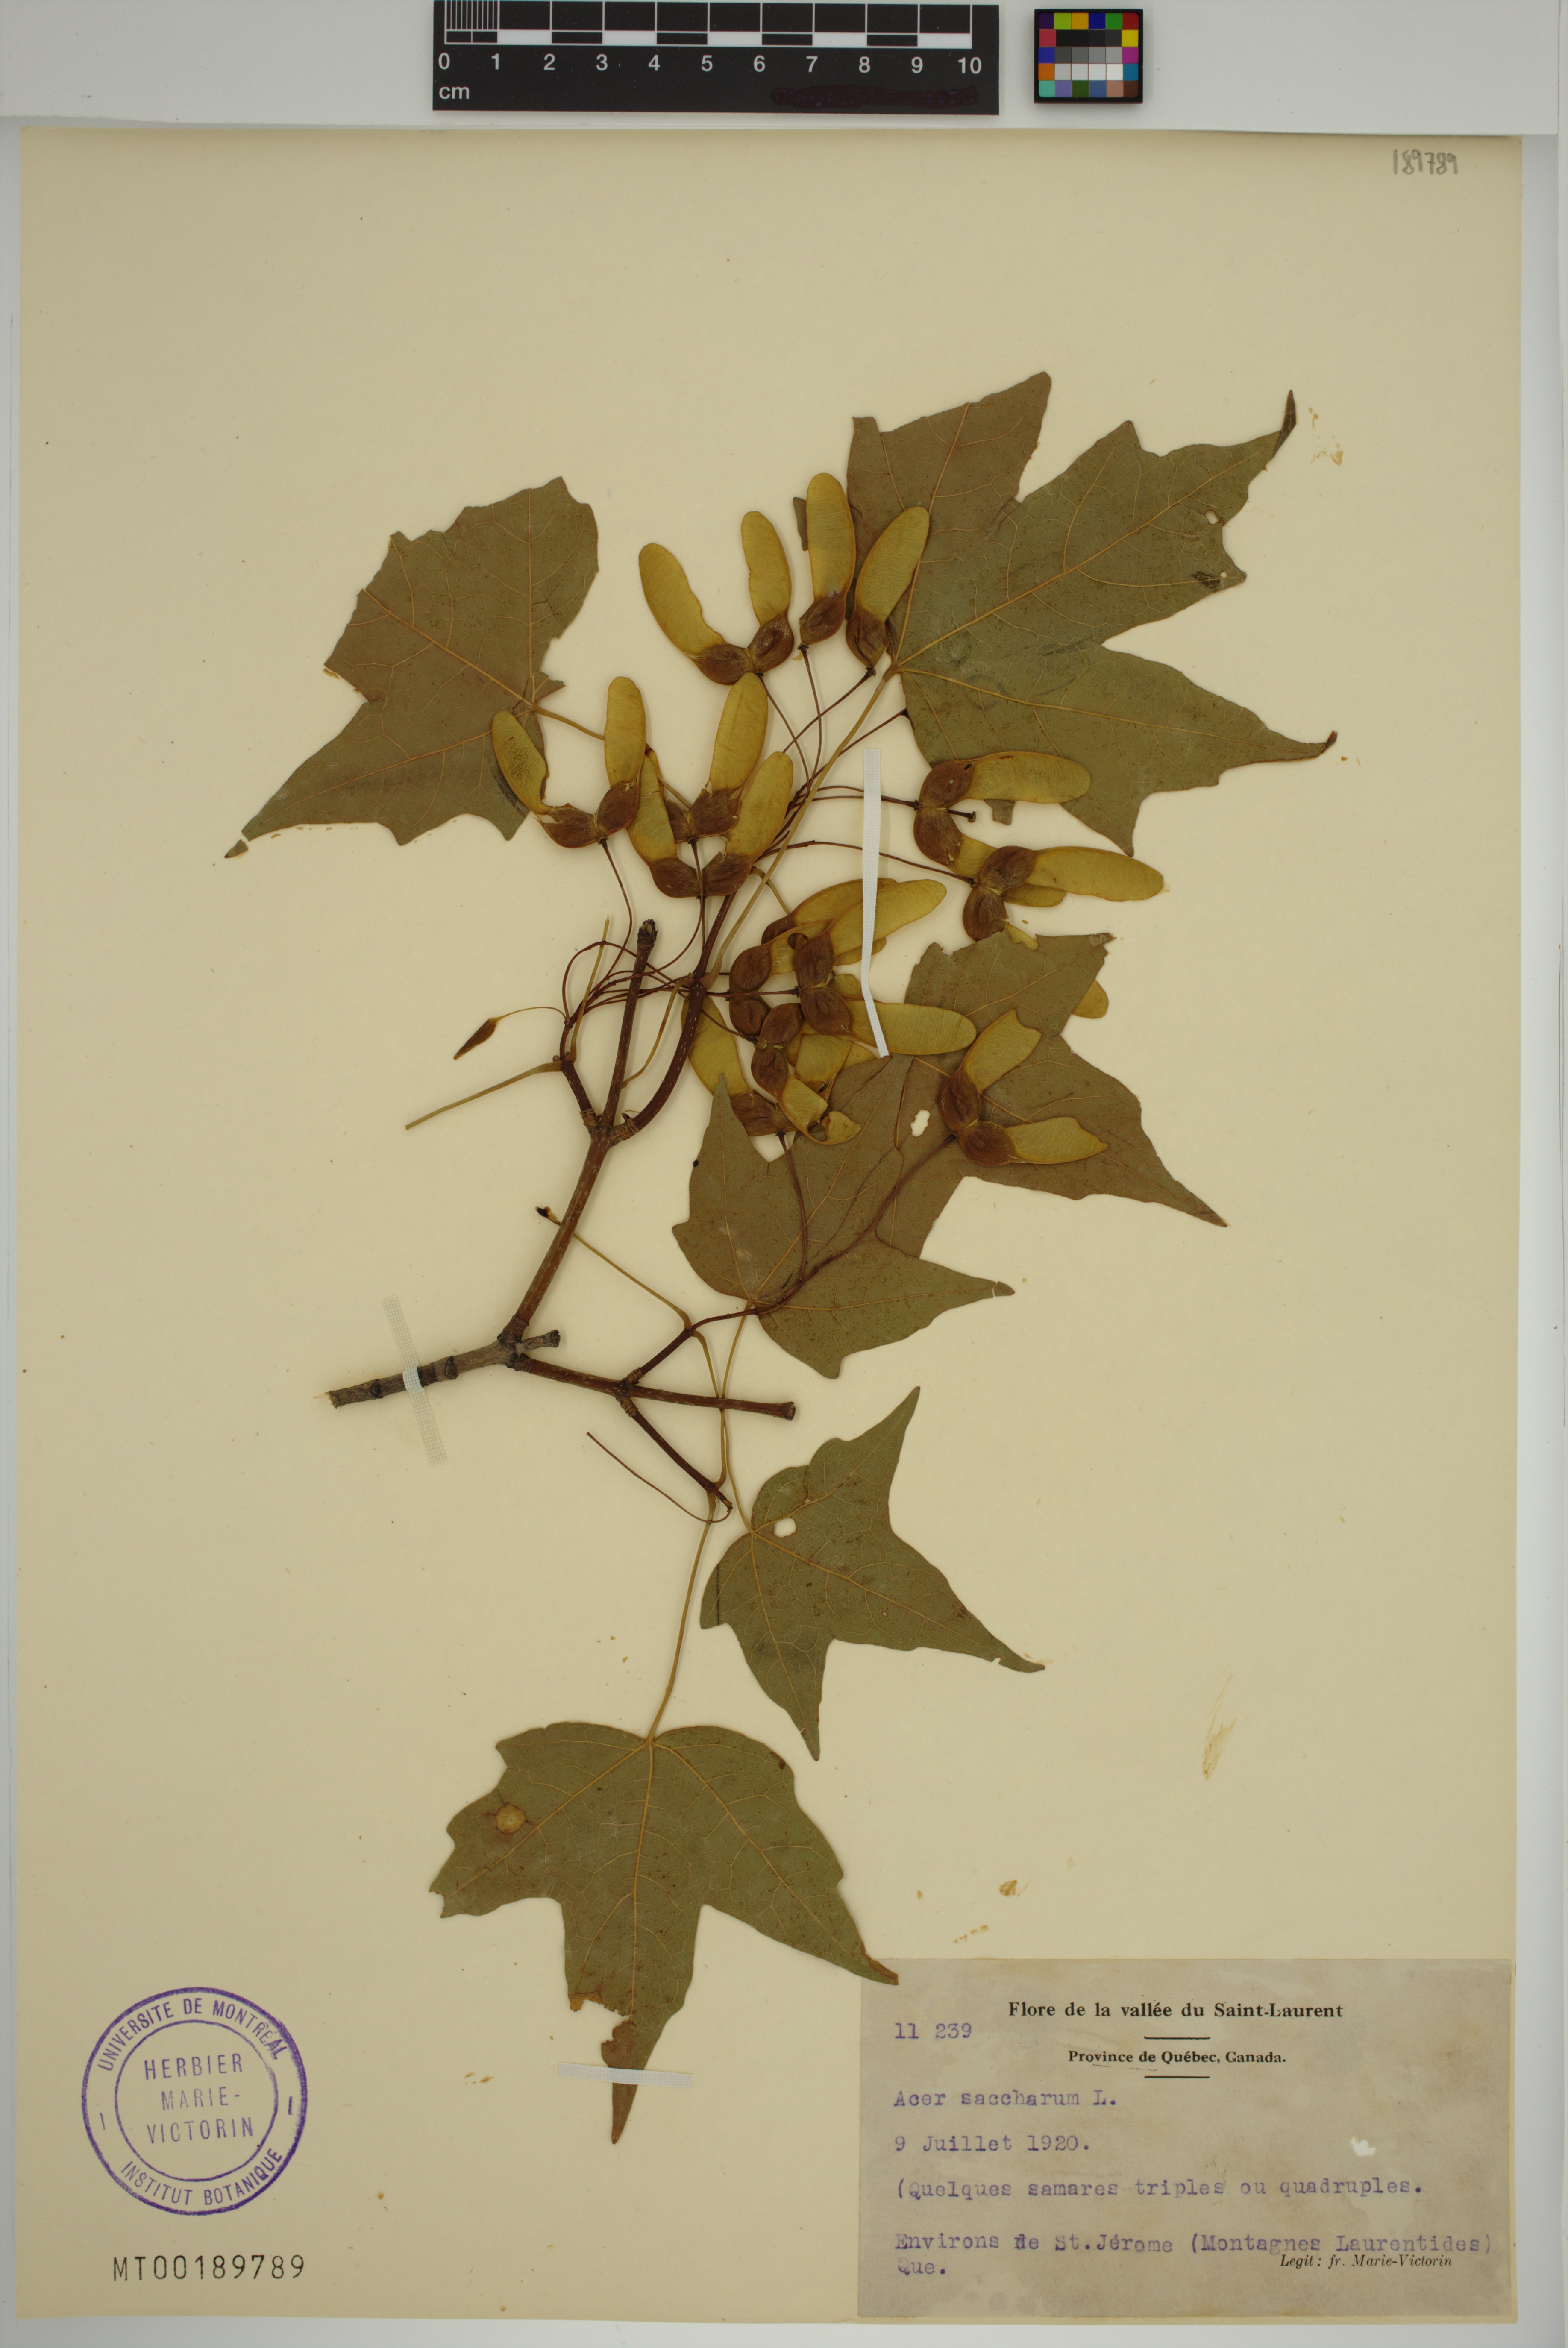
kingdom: Plantae
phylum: Tracheophyta
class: Magnoliopsida
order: Sapindales
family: Sapindaceae
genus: Acer
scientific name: Acer saccharum
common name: Sugar maple
